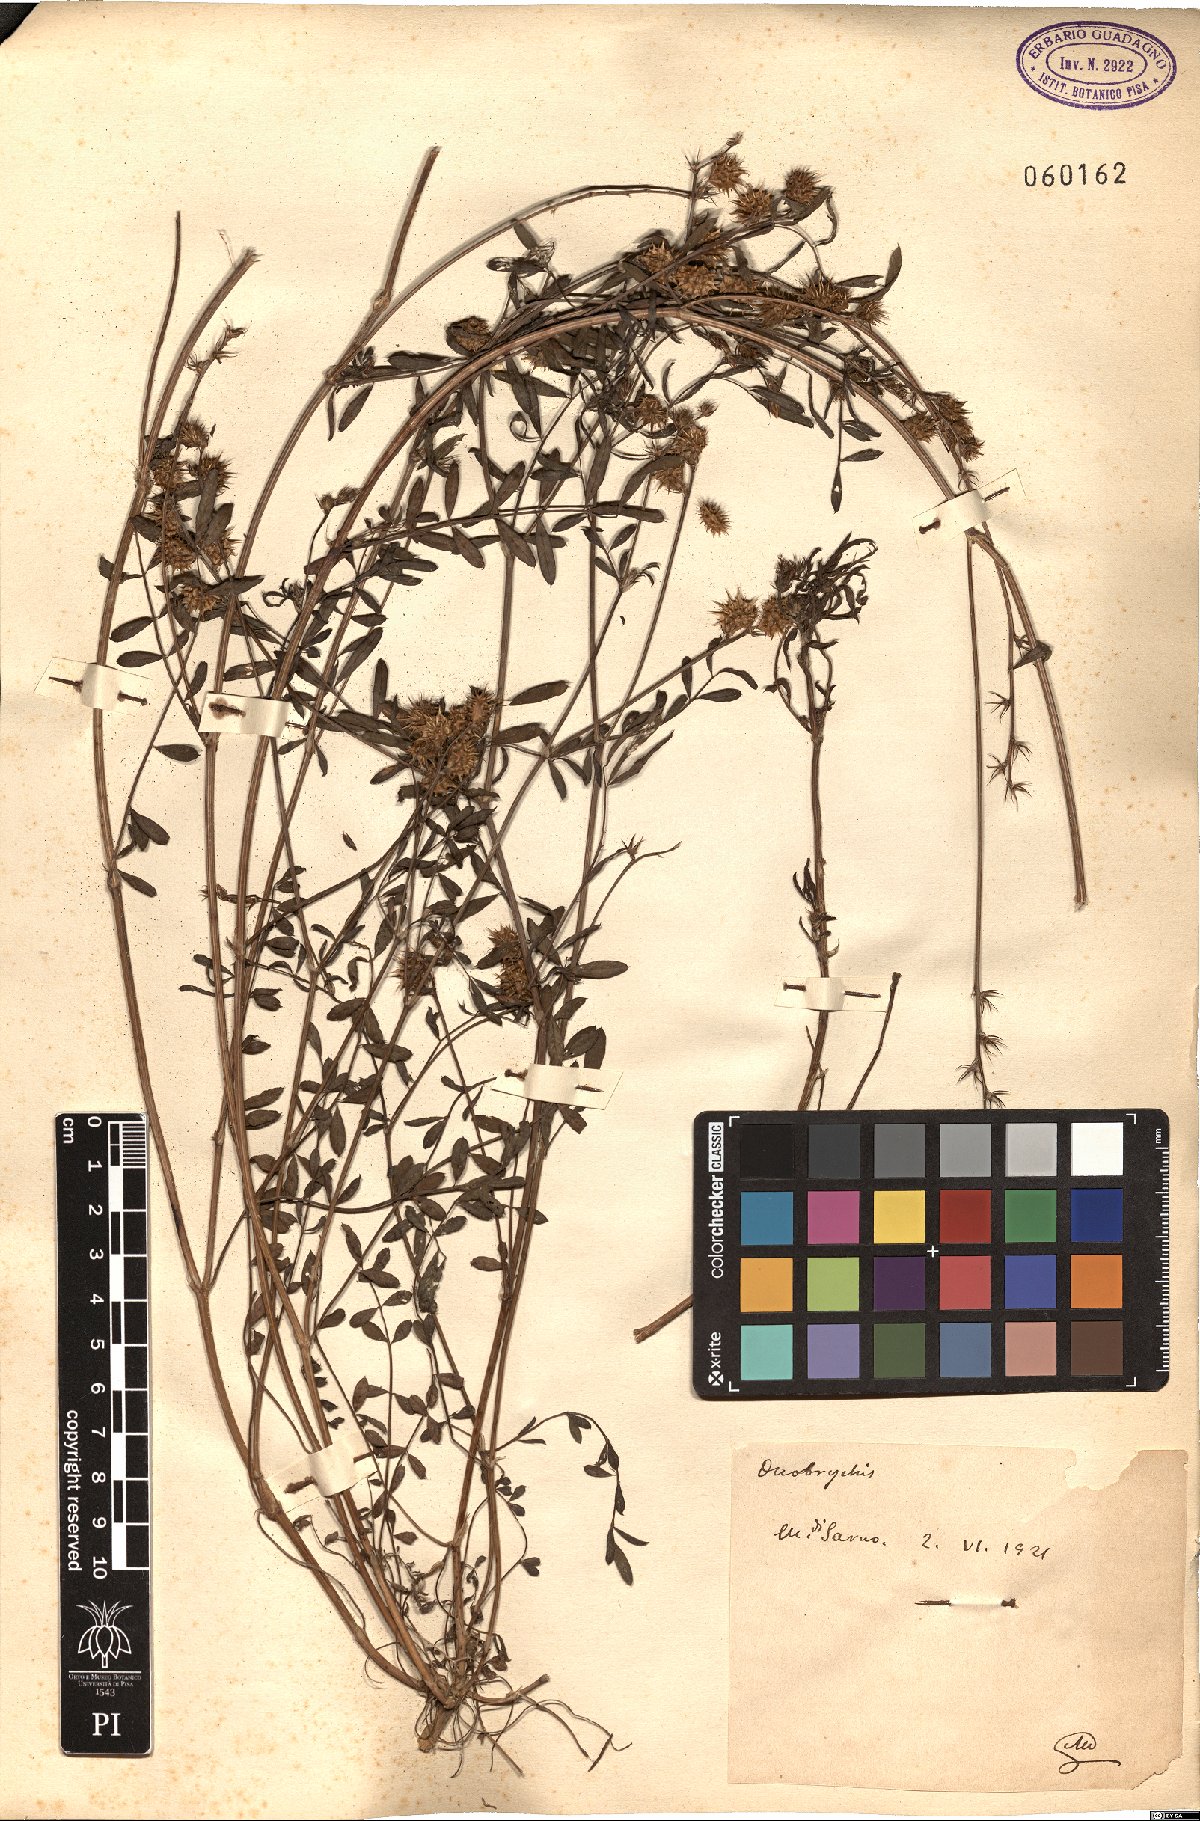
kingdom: Plantae
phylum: Tracheophyta
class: Magnoliopsida
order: Fabales
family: Fabaceae
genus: Onobrychis
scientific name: Onobrychis
